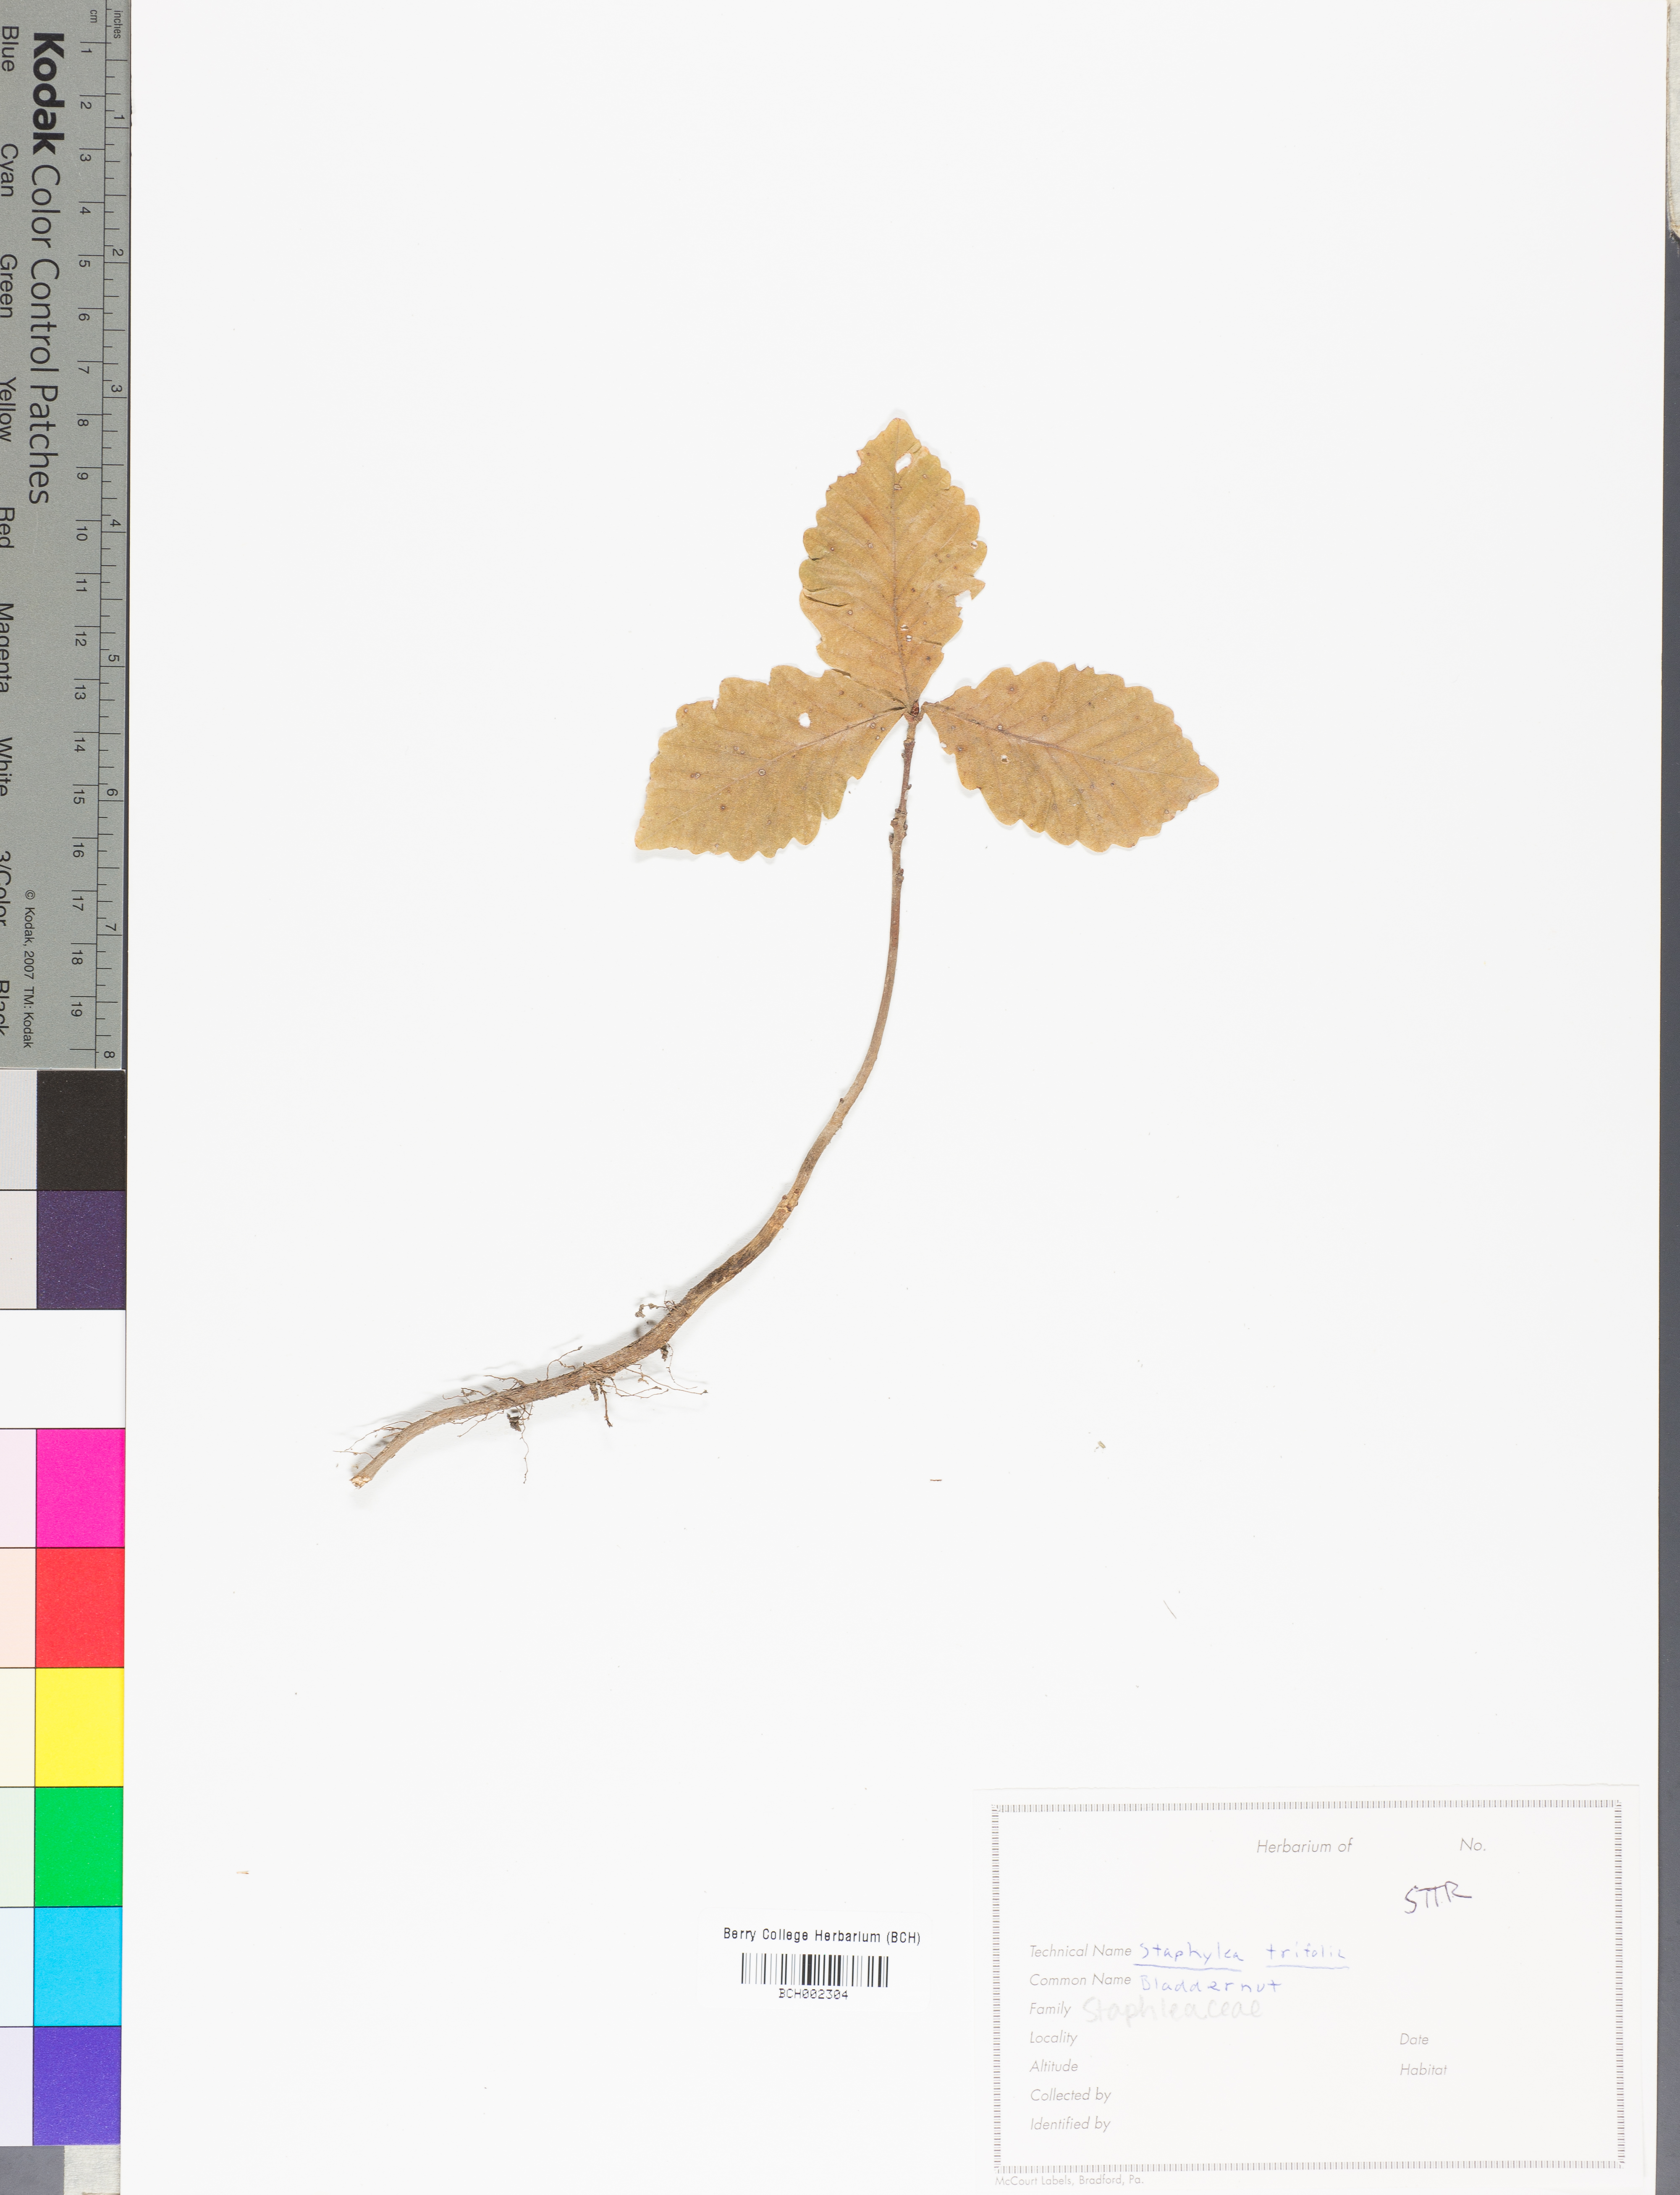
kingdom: Plantae
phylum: Tracheophyta
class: Magnoliopsida
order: Crossosomatales
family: Staphyleaceae
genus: Staphylea
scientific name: Staphylea trifolia
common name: American bladdernut
